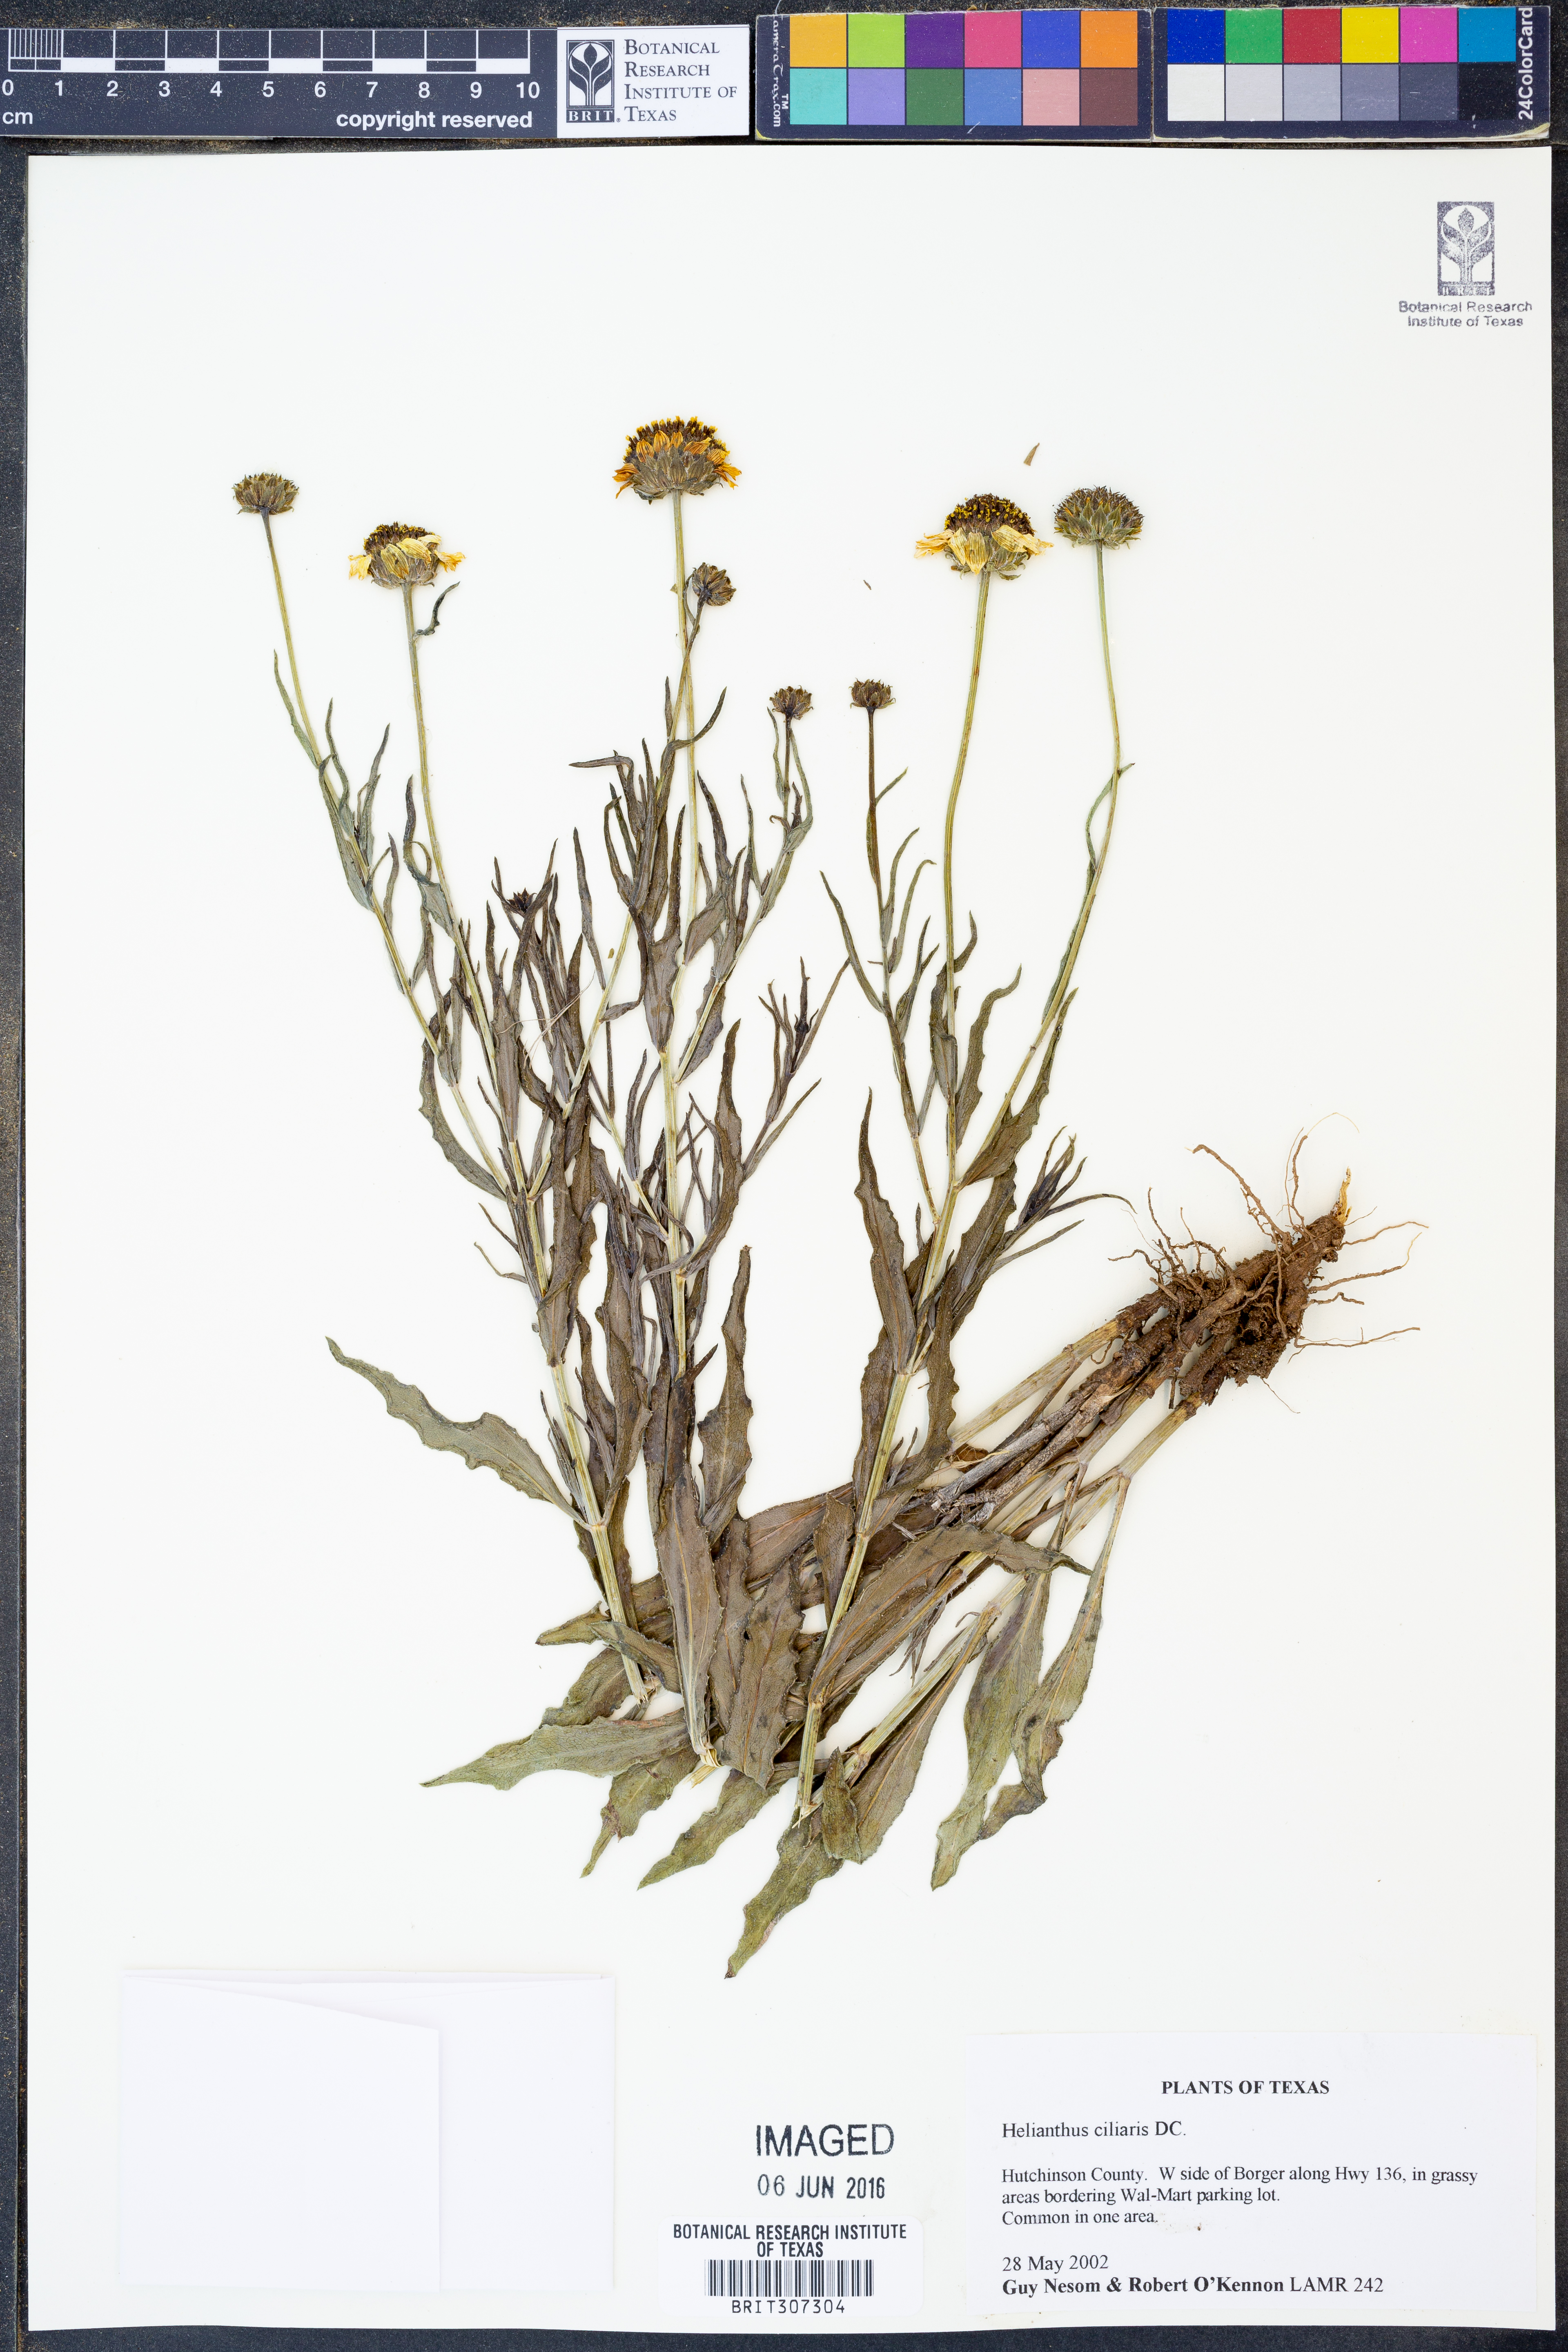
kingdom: Plantae
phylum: Tracheophyta
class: Magnoliopsida
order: Asterales
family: Asteraceae
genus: Helianthus
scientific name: Helianthus ciliaris
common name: Texas blueweed
